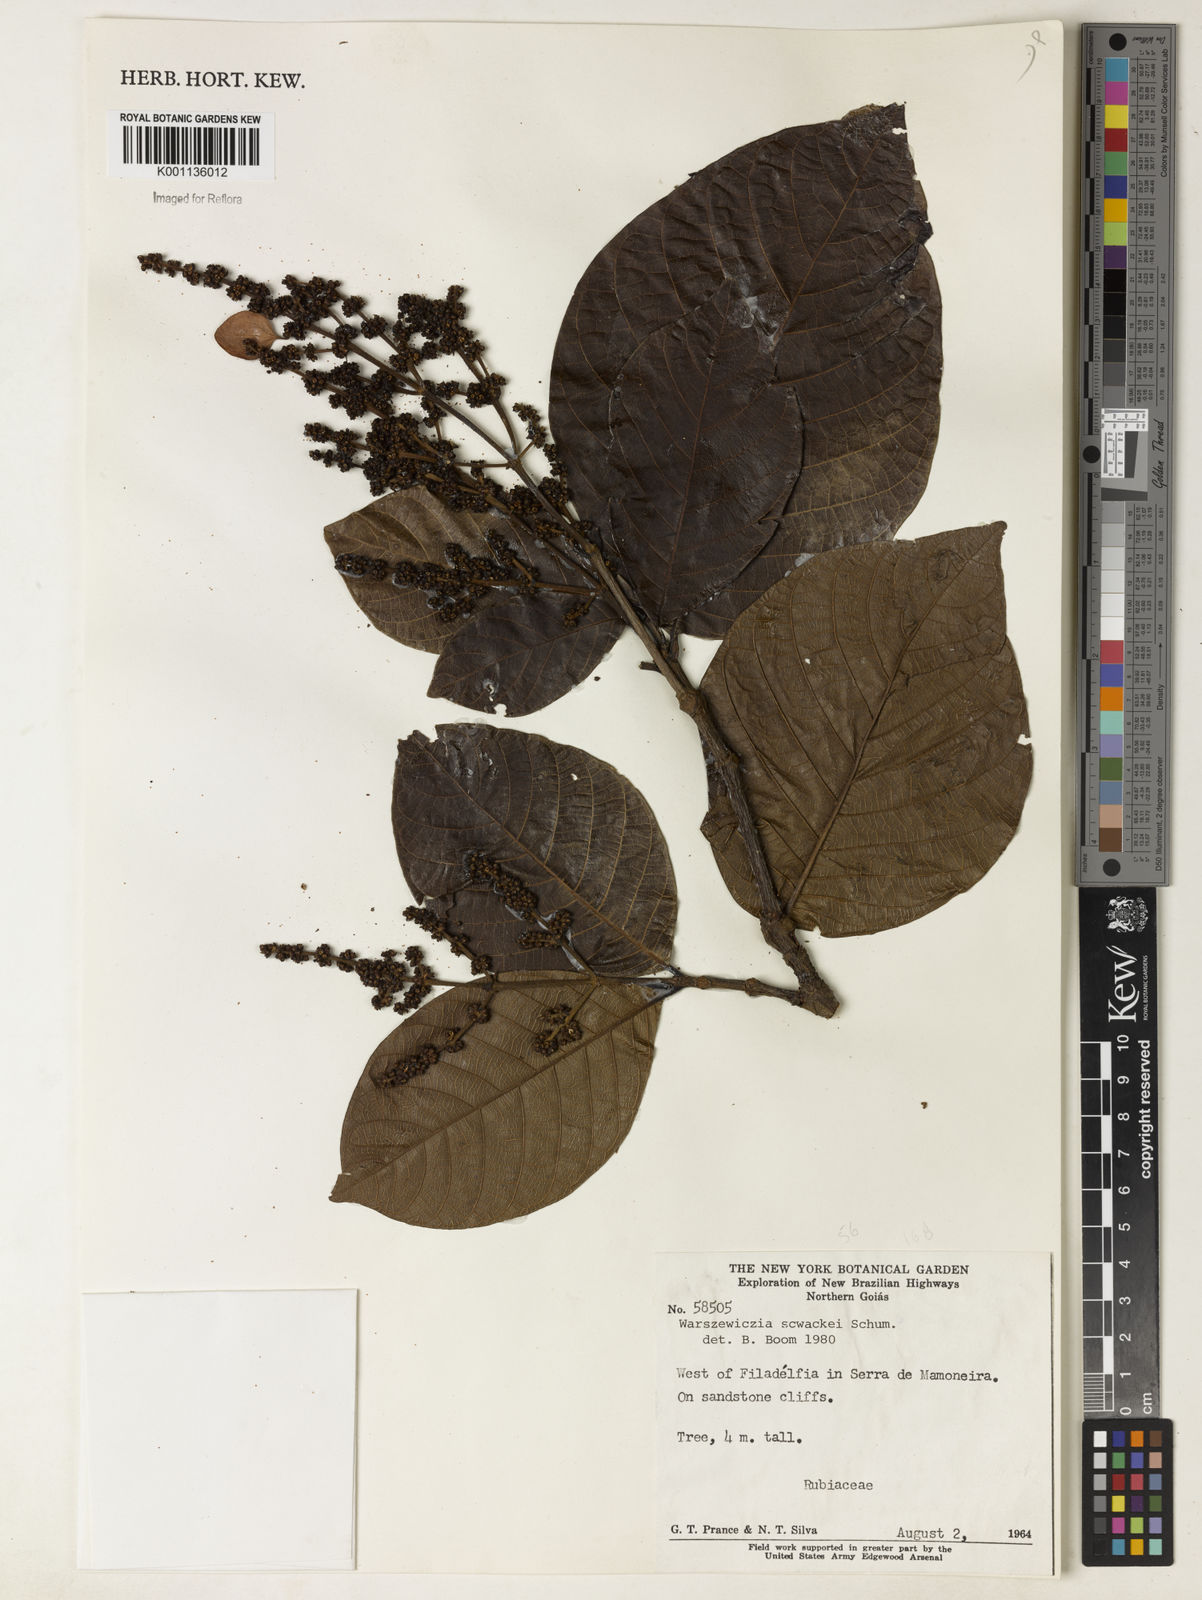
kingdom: Plantae
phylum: Tracheophyta
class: Magnoliopsida
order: Gentianales
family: Rubiaceae
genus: Warszewiczia
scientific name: Warszewiczia schwackei
